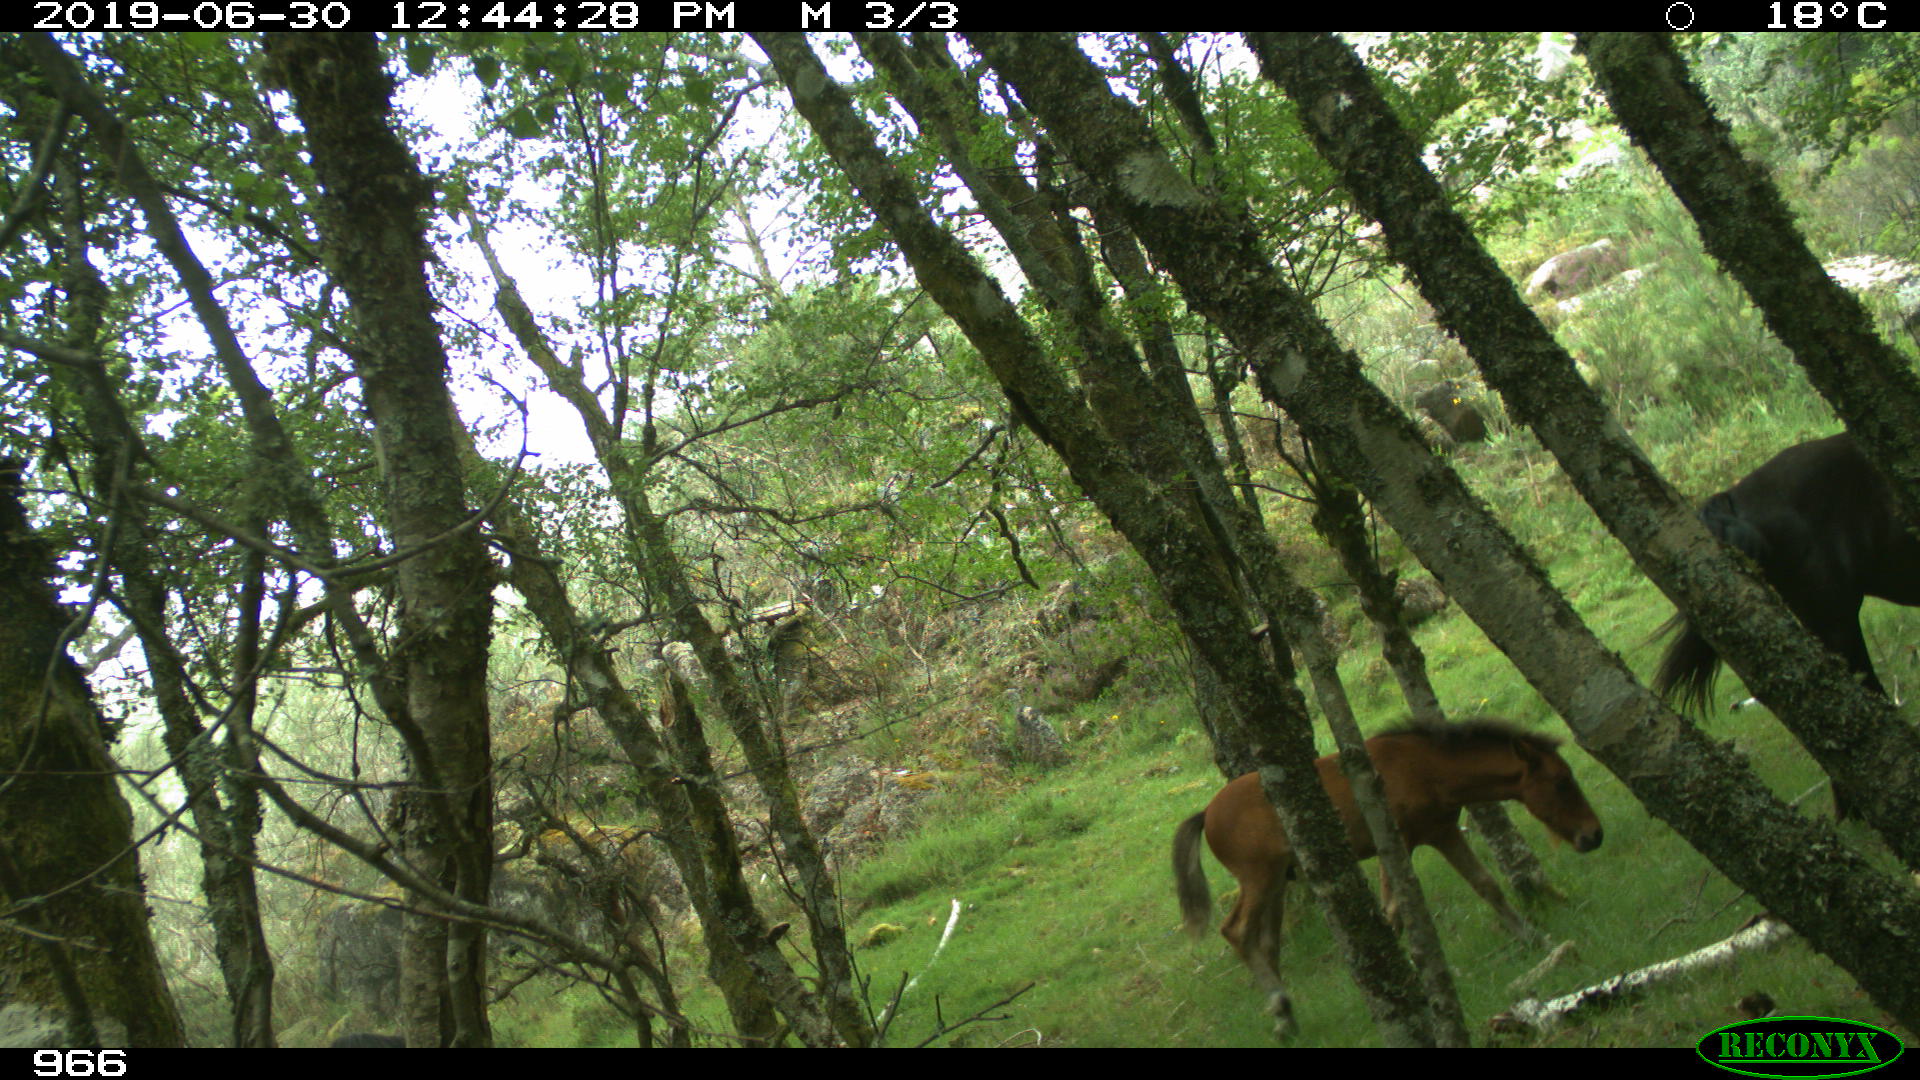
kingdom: Animalia
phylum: Chordata
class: Mammalia
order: Perissodactyla
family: Equidae
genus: Equus
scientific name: Equus caballus
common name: Horse
